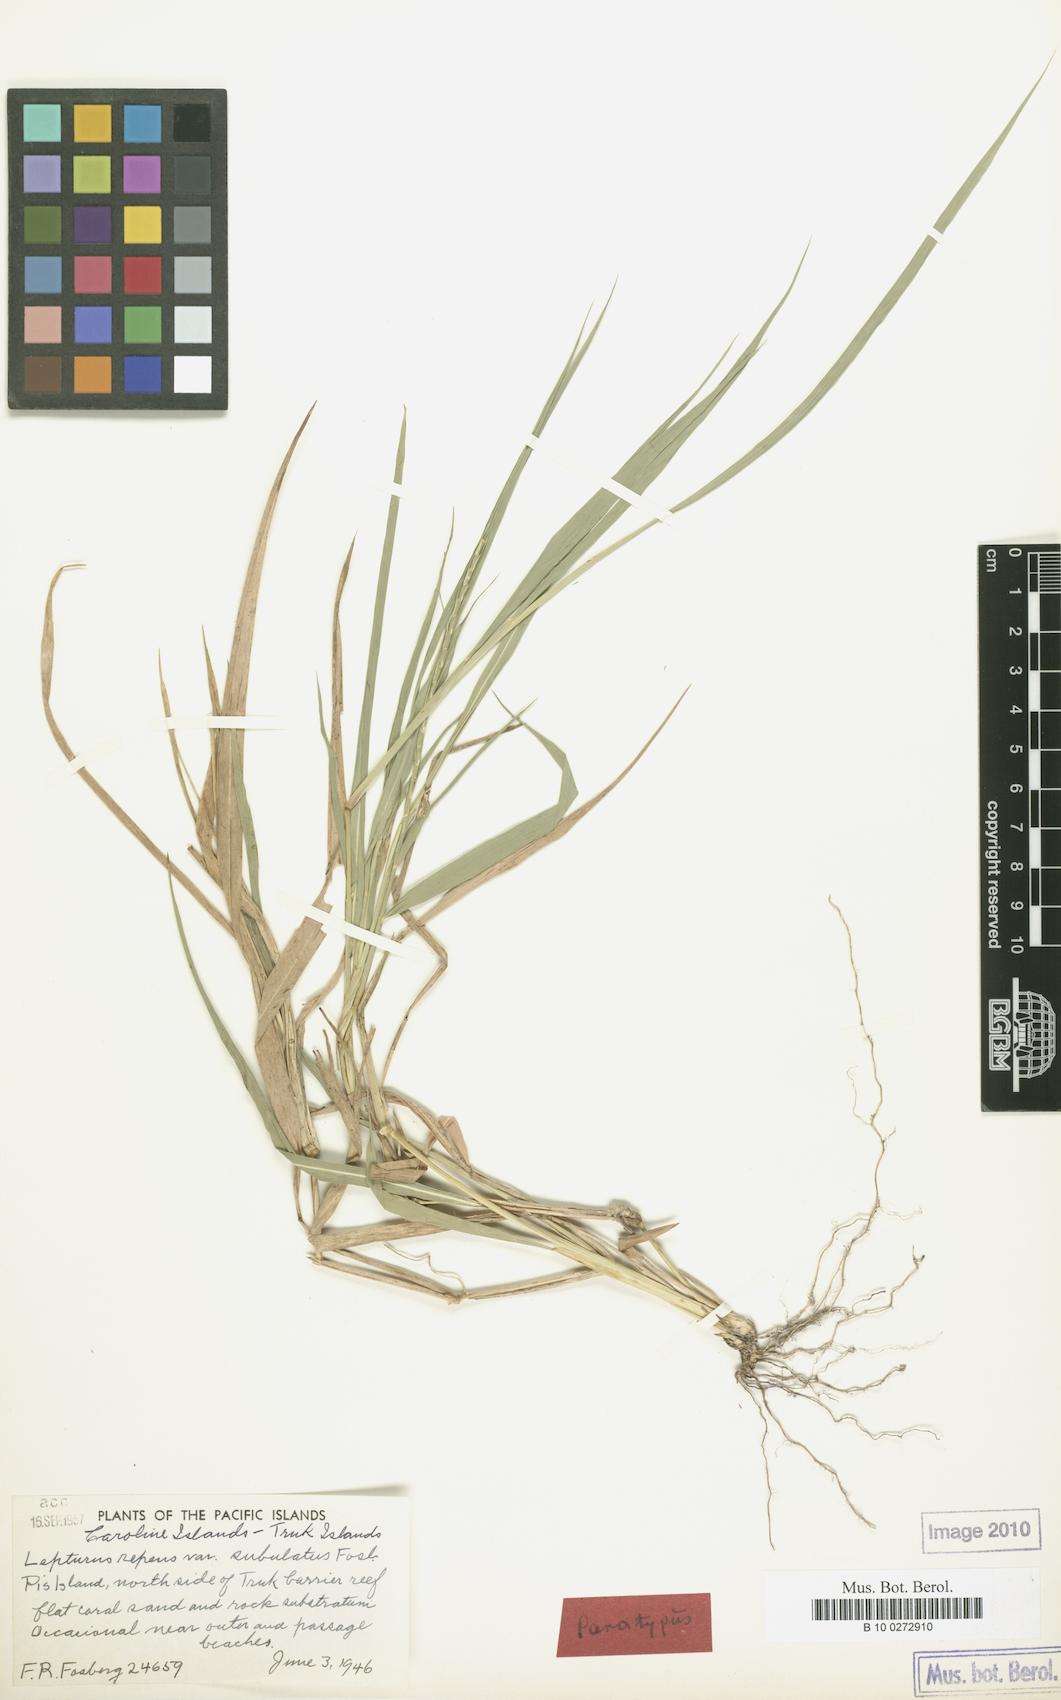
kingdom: Plantae
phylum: Tracheophyta
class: Liliopsida
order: Poales
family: Poaceae
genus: Lepturus
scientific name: Lepturus repens
